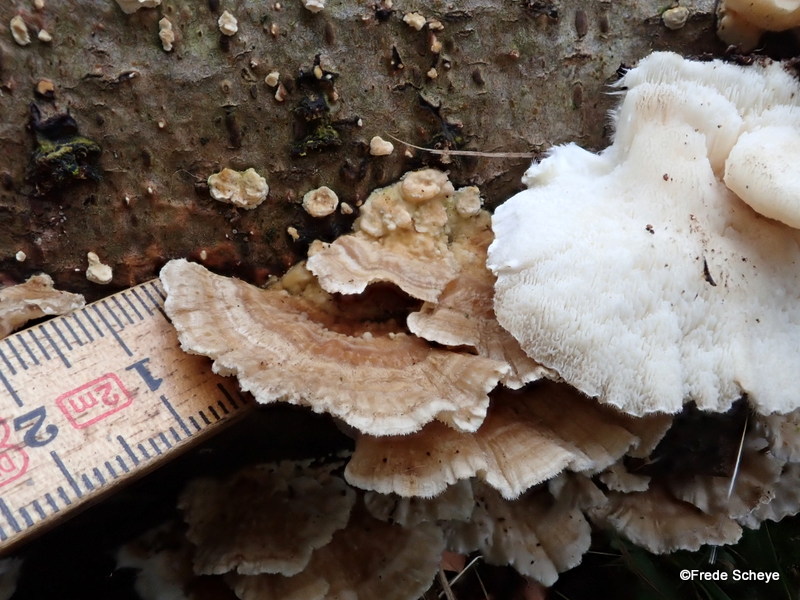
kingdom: Fungi
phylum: Basidiomycota
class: Agaricomycetes
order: Polyporales
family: Polyporaceae
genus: Trametes
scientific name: Trametes ochracea
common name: bæltet læderporesvamp
